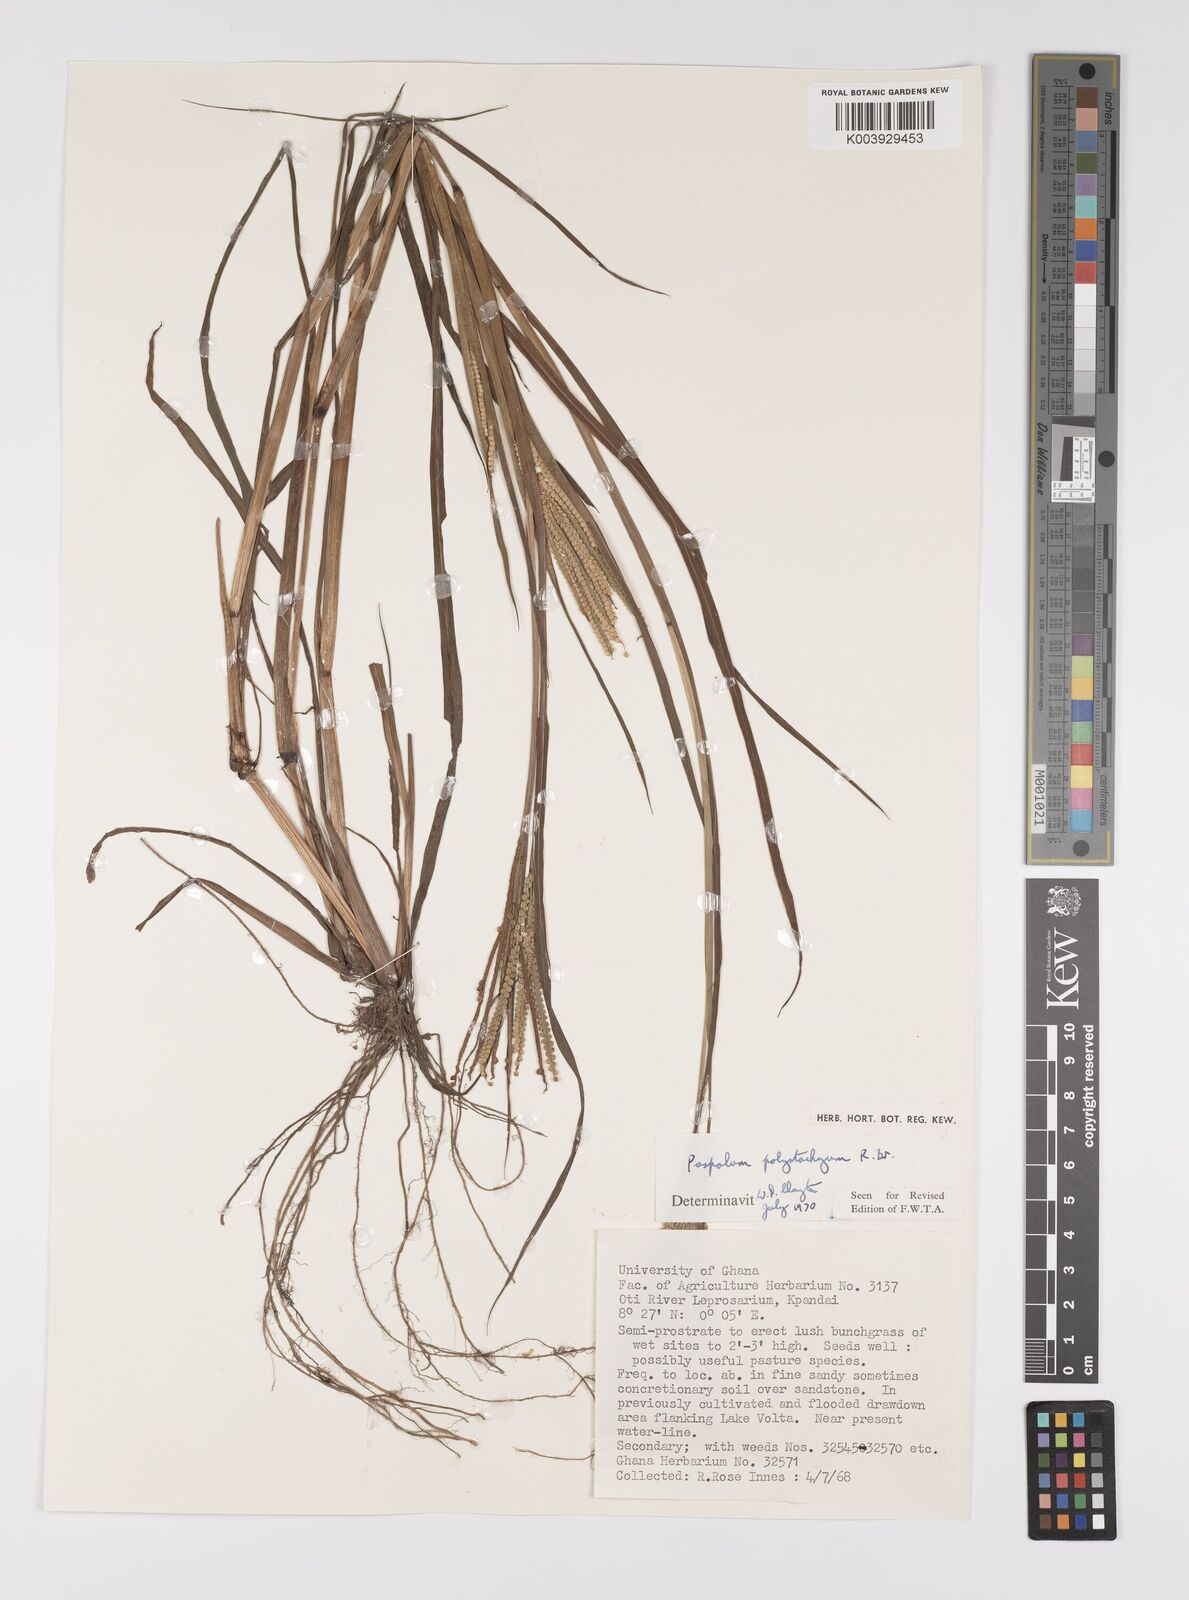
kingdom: Plantae
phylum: Tracheophyta
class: Liliopsida
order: Poales
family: Poaceae
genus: Paspalum
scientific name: Paspalum scrobiculatum
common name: Kodo millet
